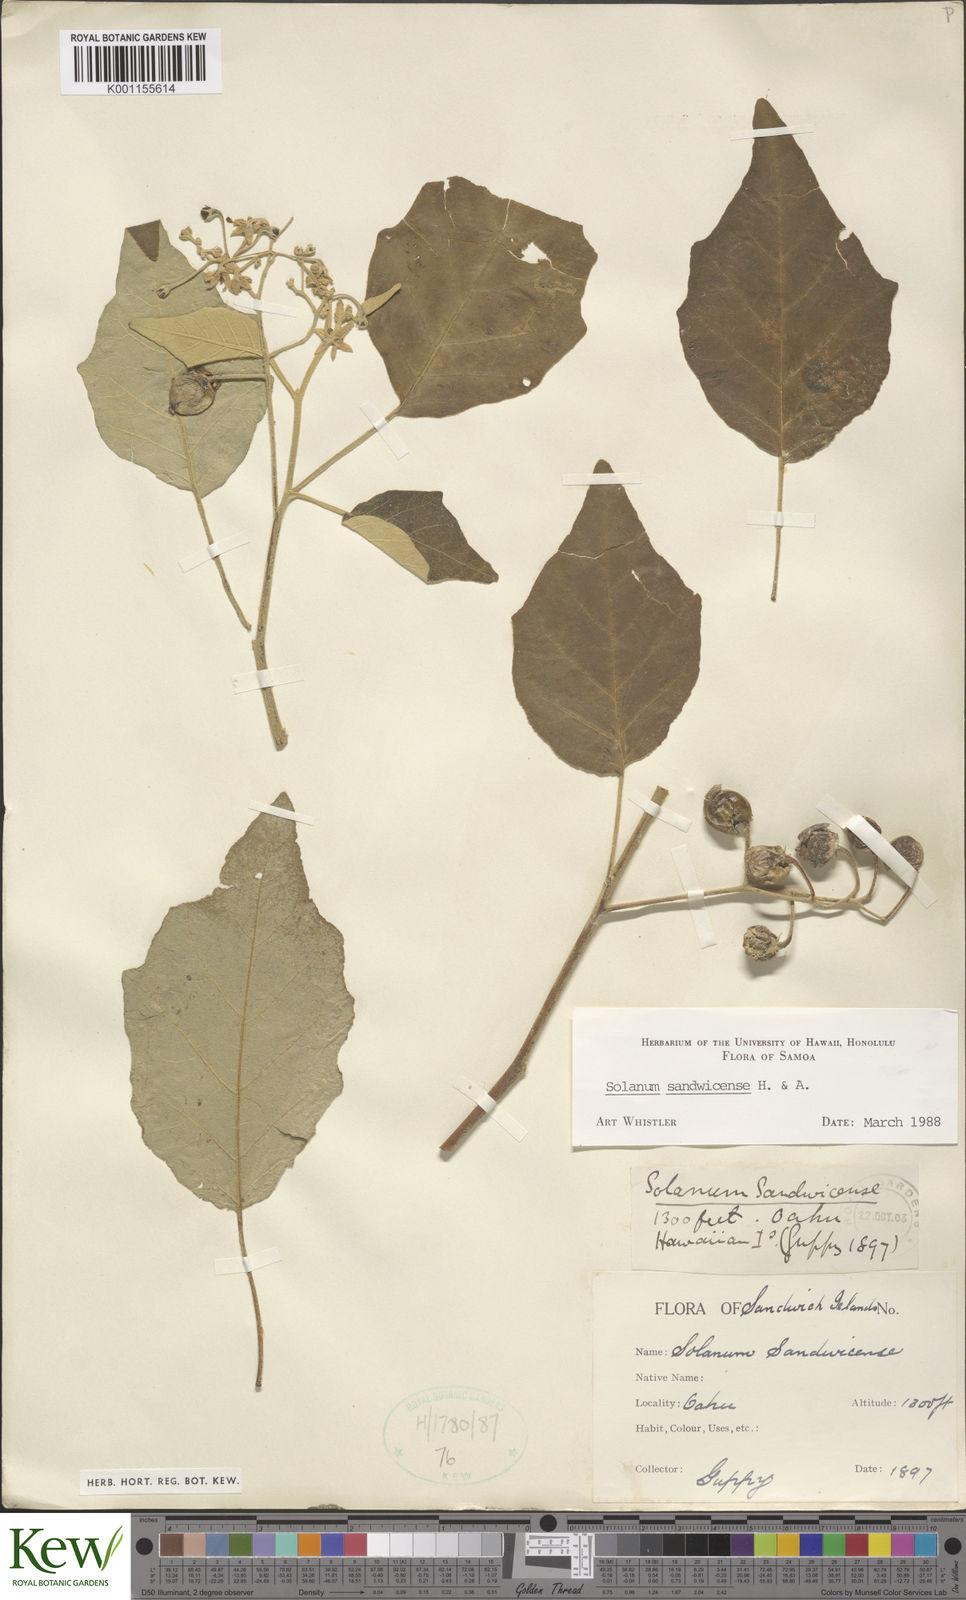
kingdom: Plantae
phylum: Tracheophyta
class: Magnoliopsida
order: Solanales
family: Solanaceae
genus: Solanum
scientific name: Solanum sandwicense
